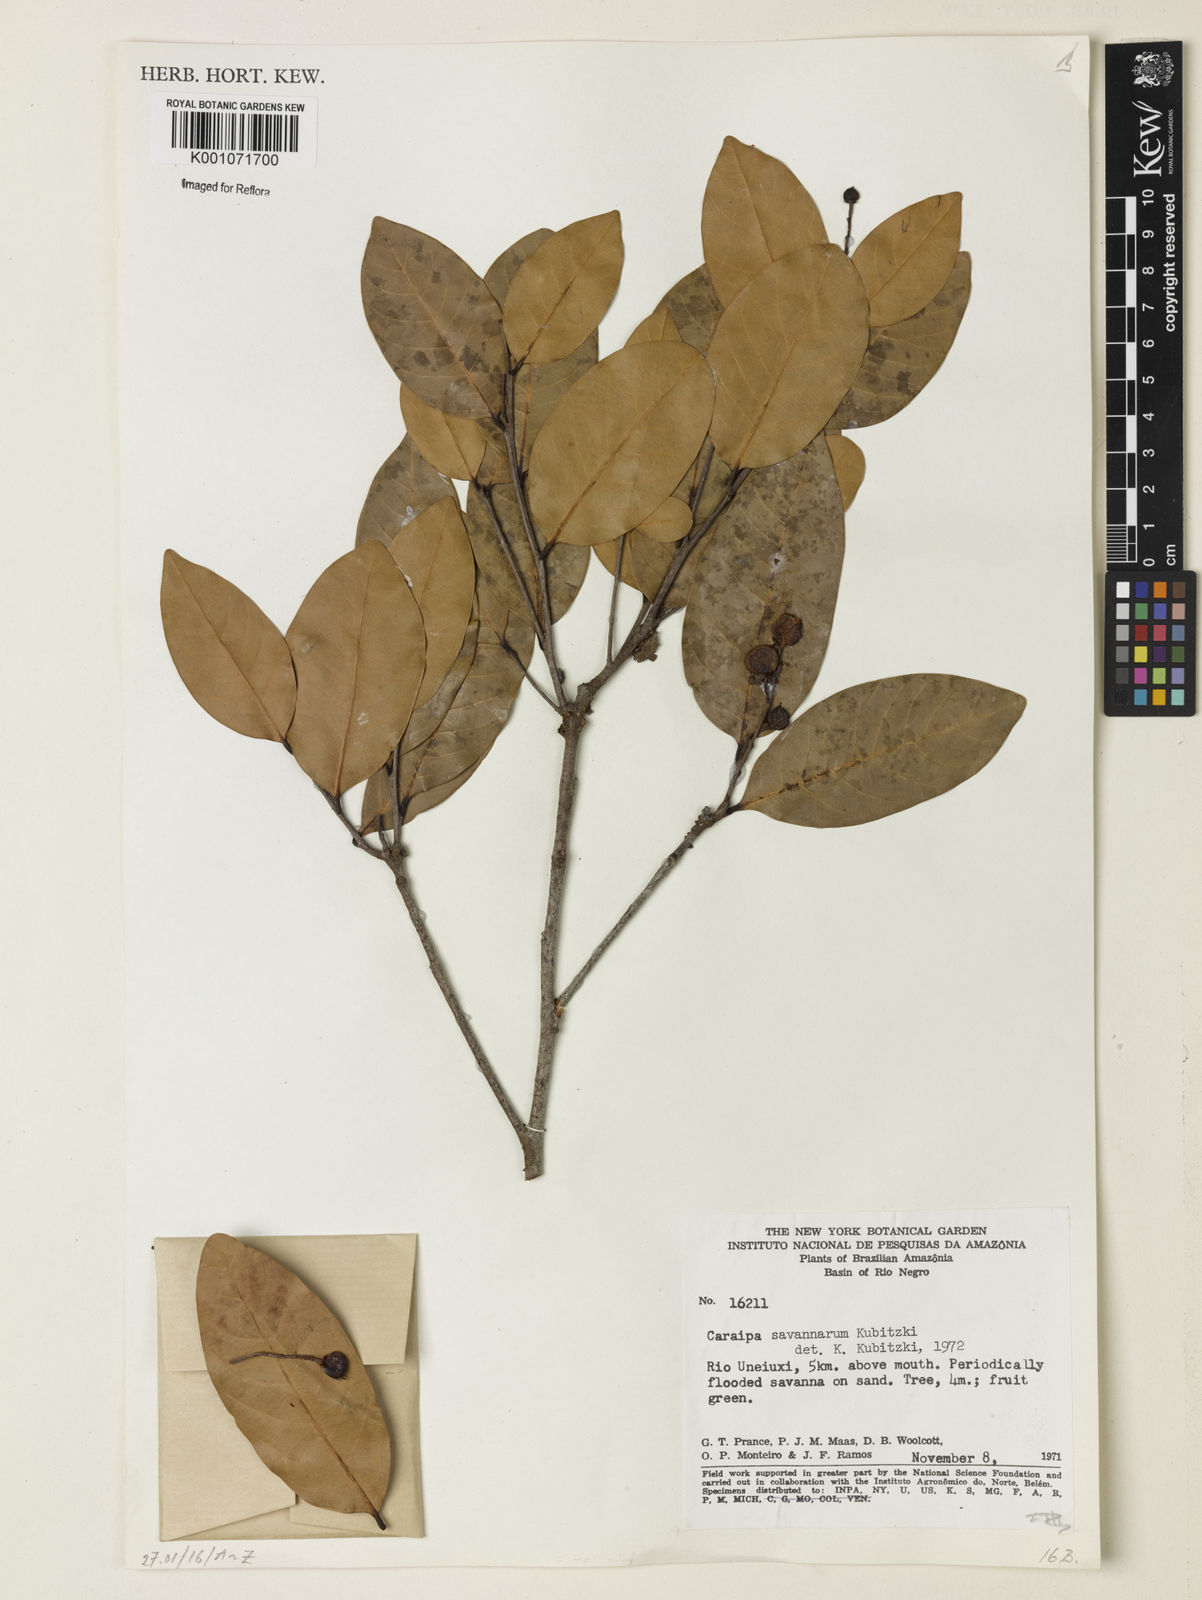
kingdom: Plantae
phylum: Tracheophyta
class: Magnoliopsida
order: Malpighiales
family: Calophyllaceae
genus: Caraipa
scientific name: Caraipa savannarum
